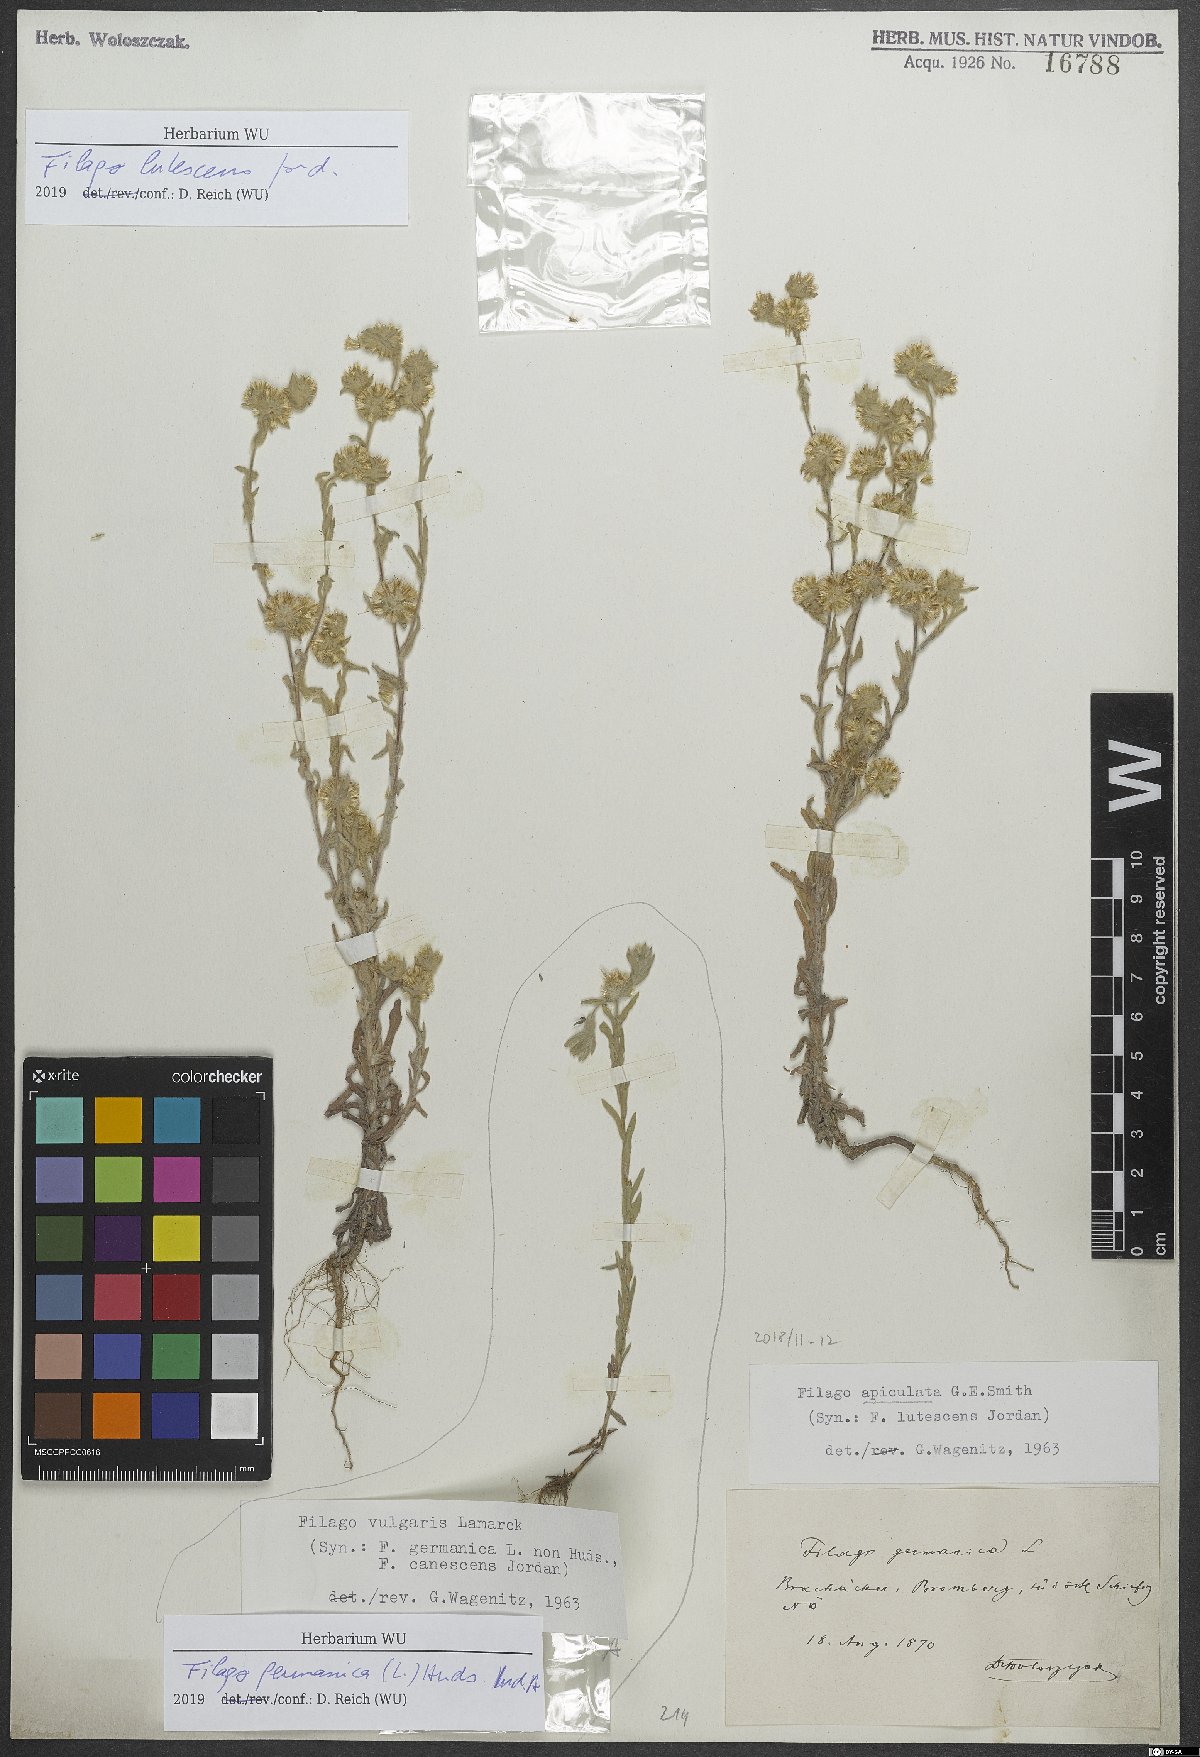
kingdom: Plantae
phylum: Tracheophyta
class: Magnoliopsida
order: Asterales
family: Asteraceae
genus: Filago
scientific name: Filago lutescens
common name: Red-tipped cudweed
